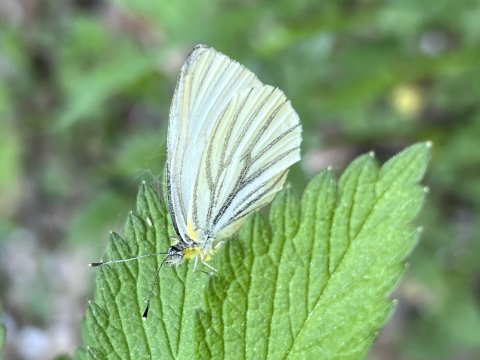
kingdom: Animalia
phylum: Arthropoda
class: Insecta
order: Lepidoptera
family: Pieridae
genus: Pieris
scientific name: Pieris oleracea
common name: Mustard White
